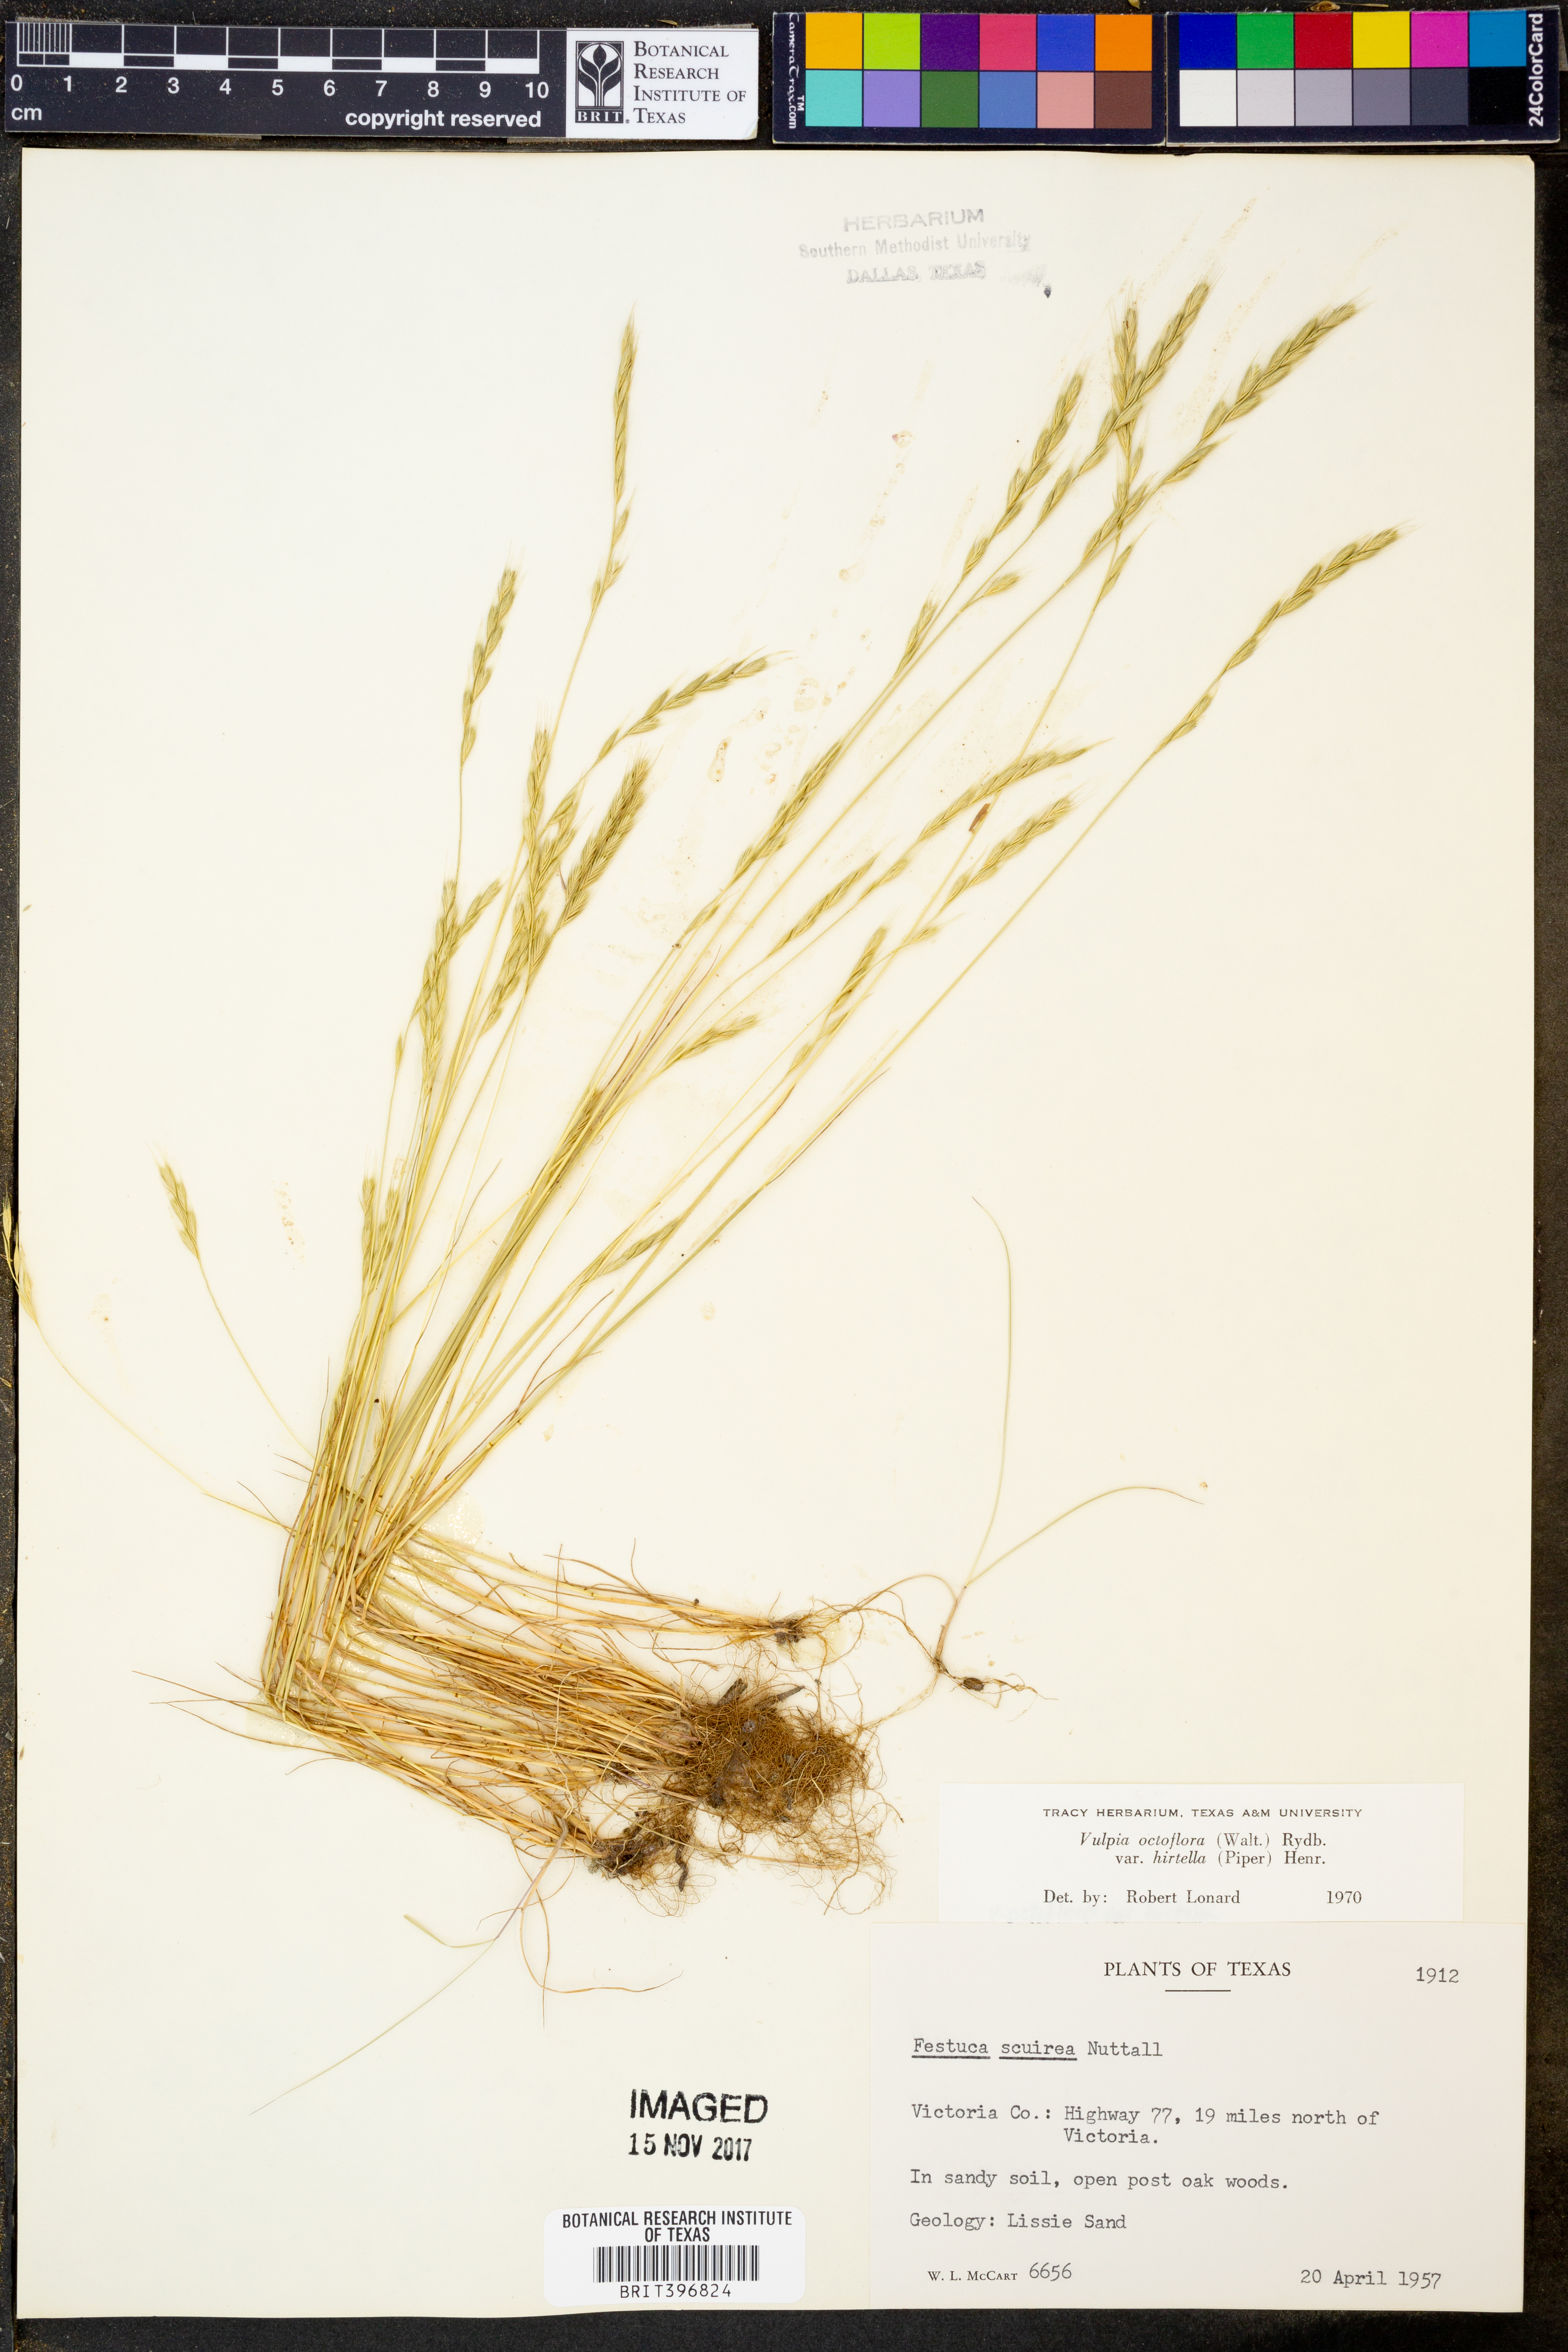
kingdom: Plantae
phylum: Tracheophyta
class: Liliopsida
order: Poales
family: Poaceae
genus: Festuca
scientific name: Festuca octoflora
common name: Sixweeks grass
